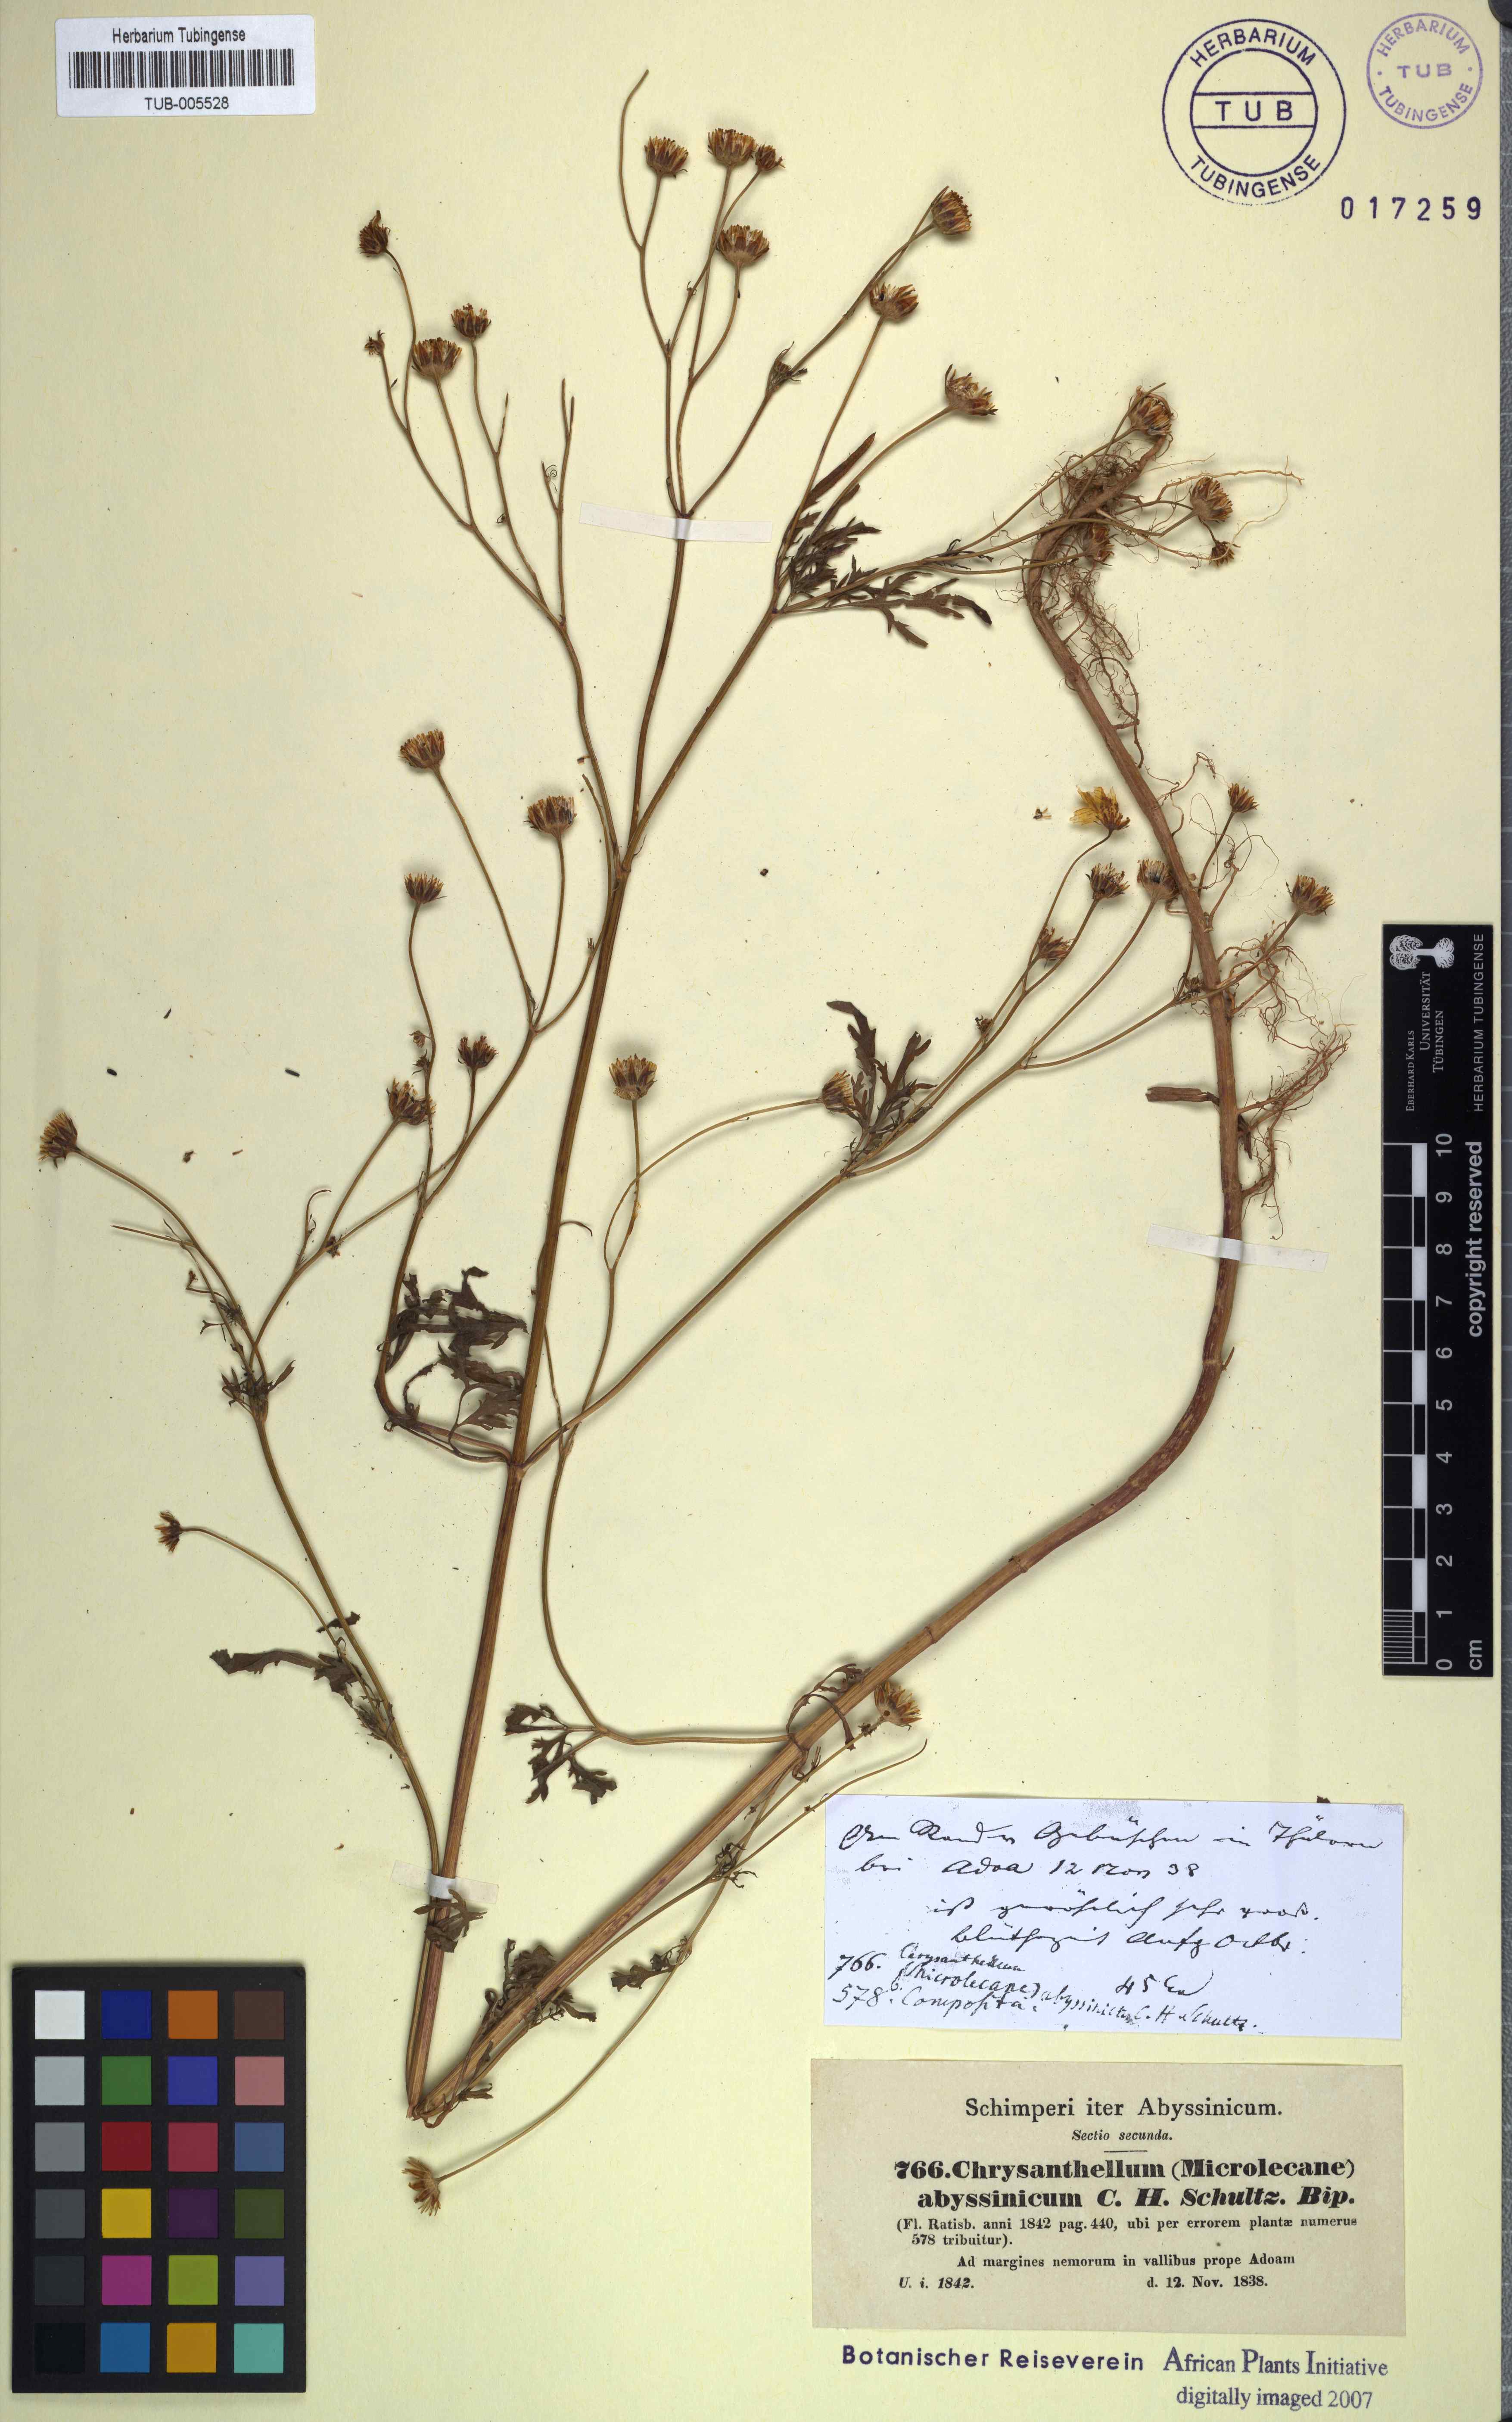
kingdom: Plantae
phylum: Tracheophyta
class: Magnoliopsida
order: Asterales
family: Asteraceae
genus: Bidens
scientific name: Bidens setigera
